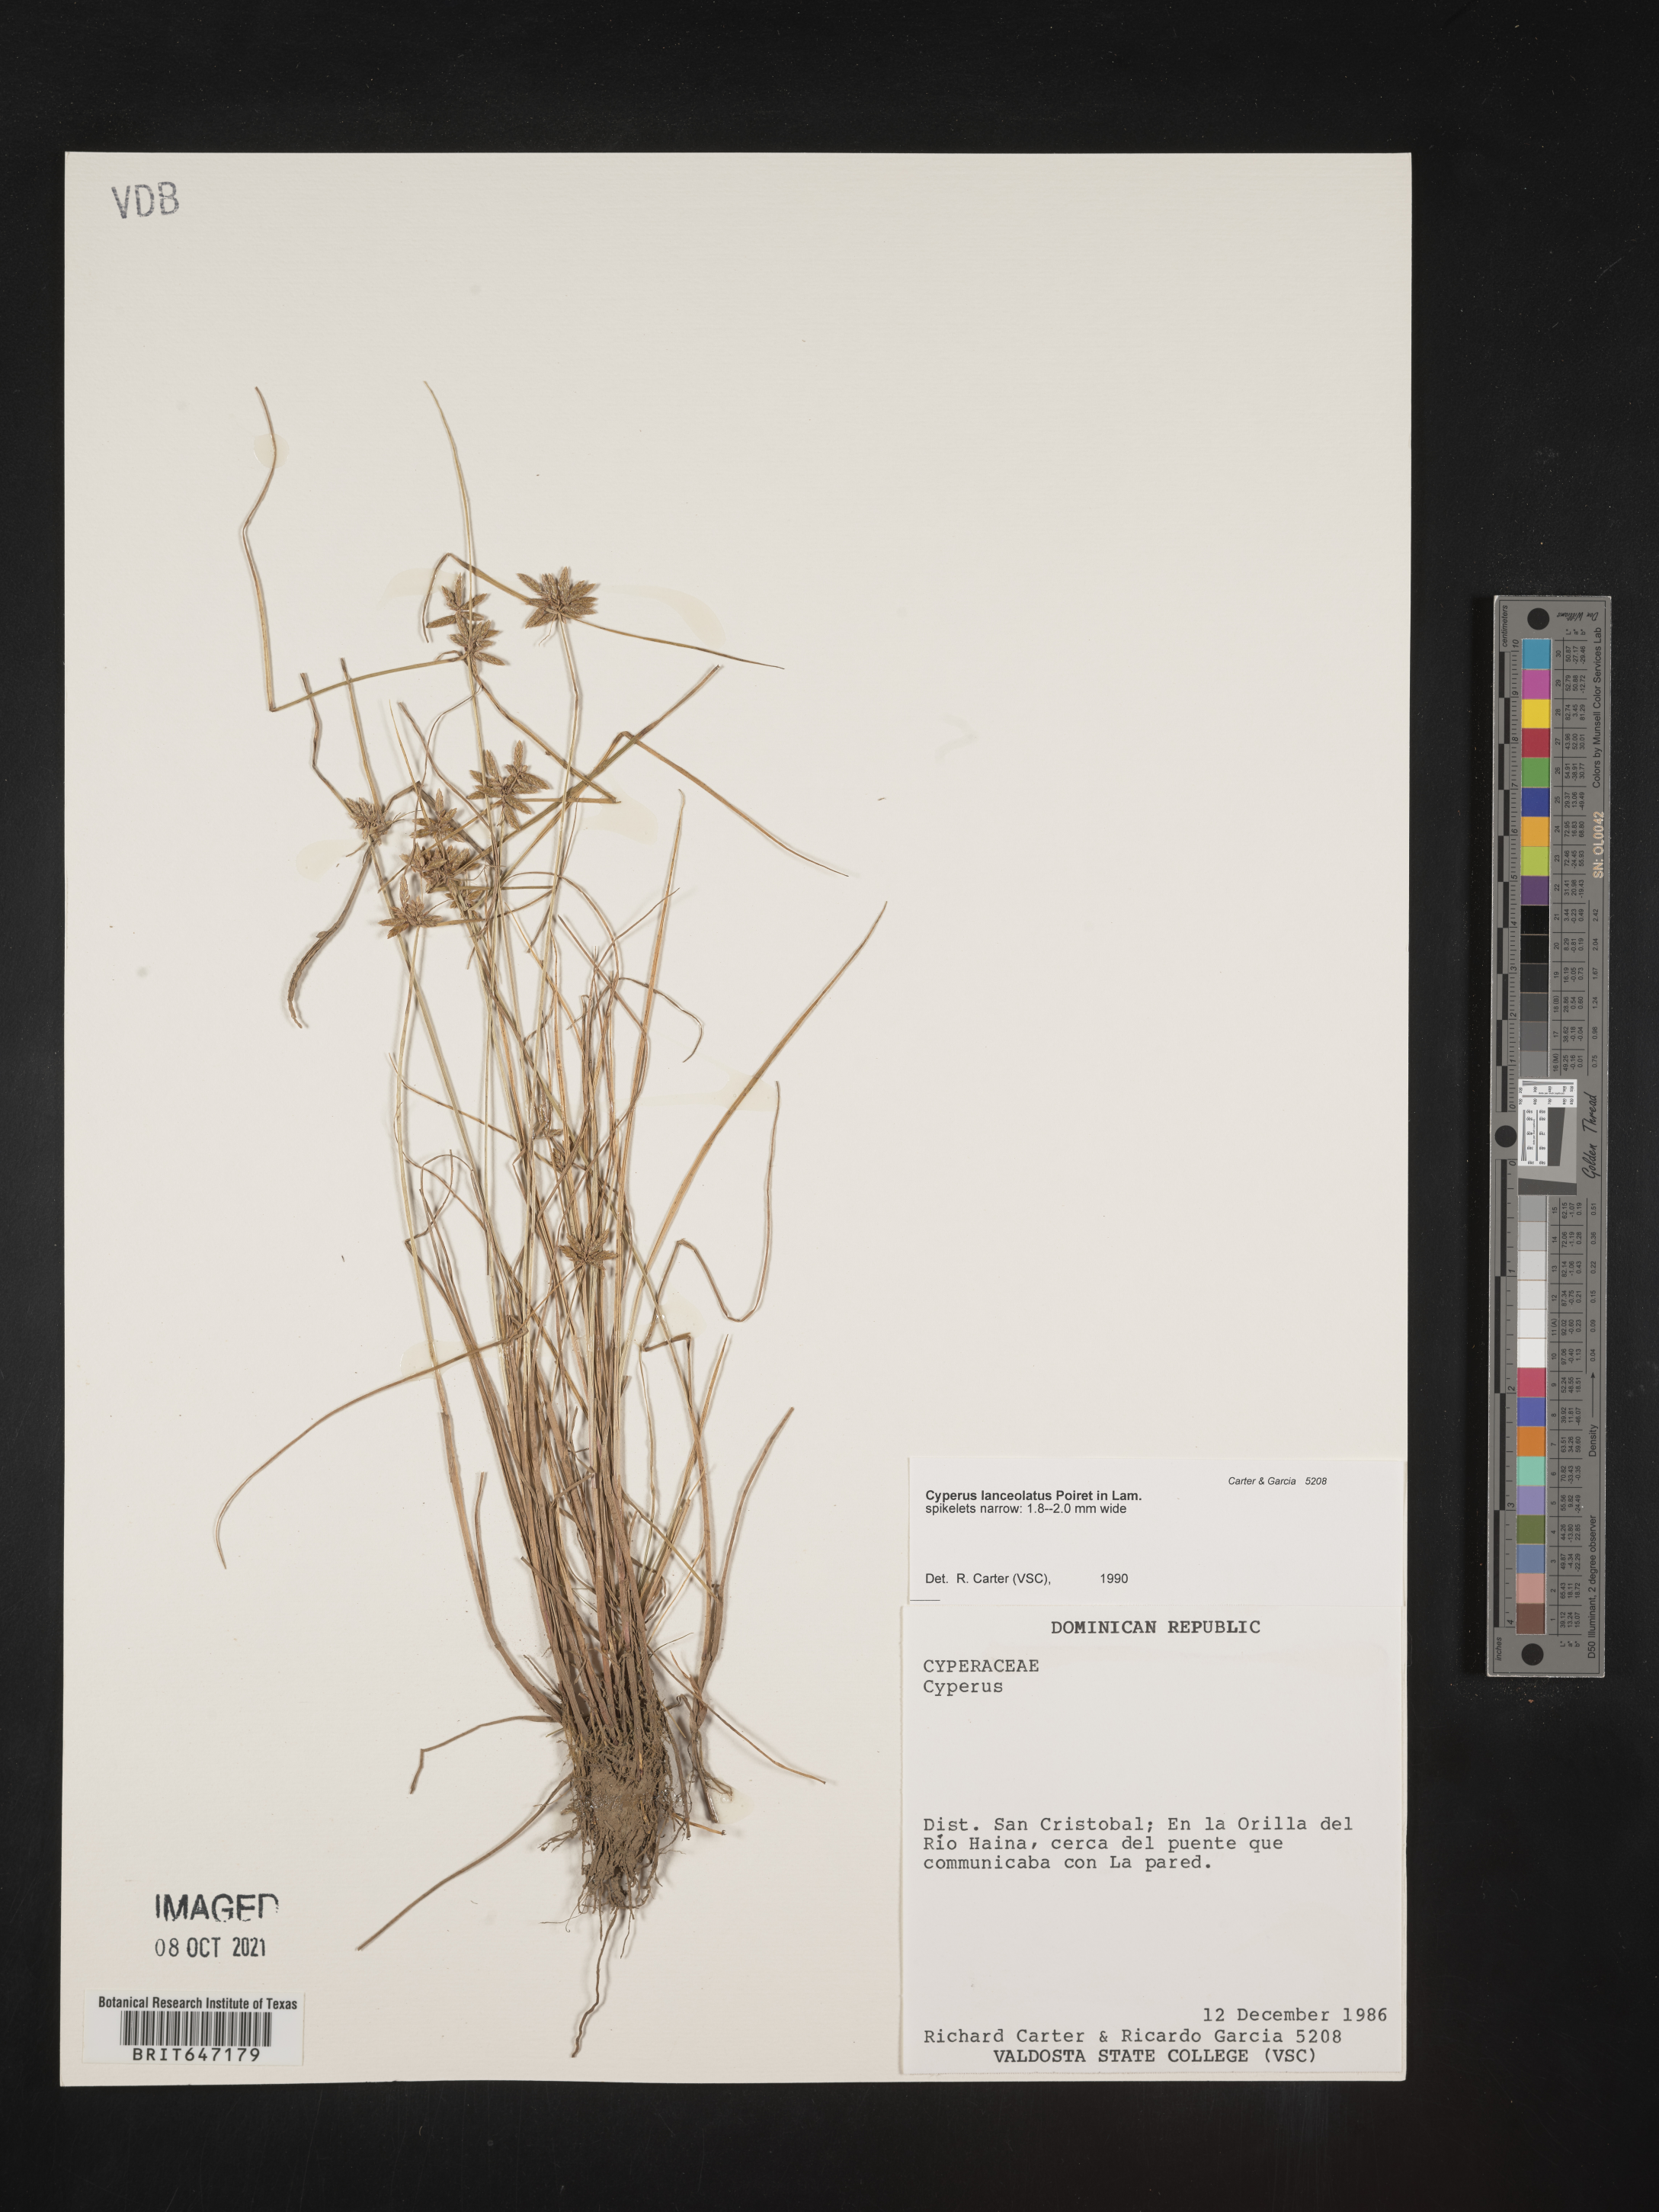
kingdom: Plantae
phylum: Tracheophyta
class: Liliopsida
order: Poales
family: Cyperaceae
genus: Cyperus
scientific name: Cyperus lanceolatus
